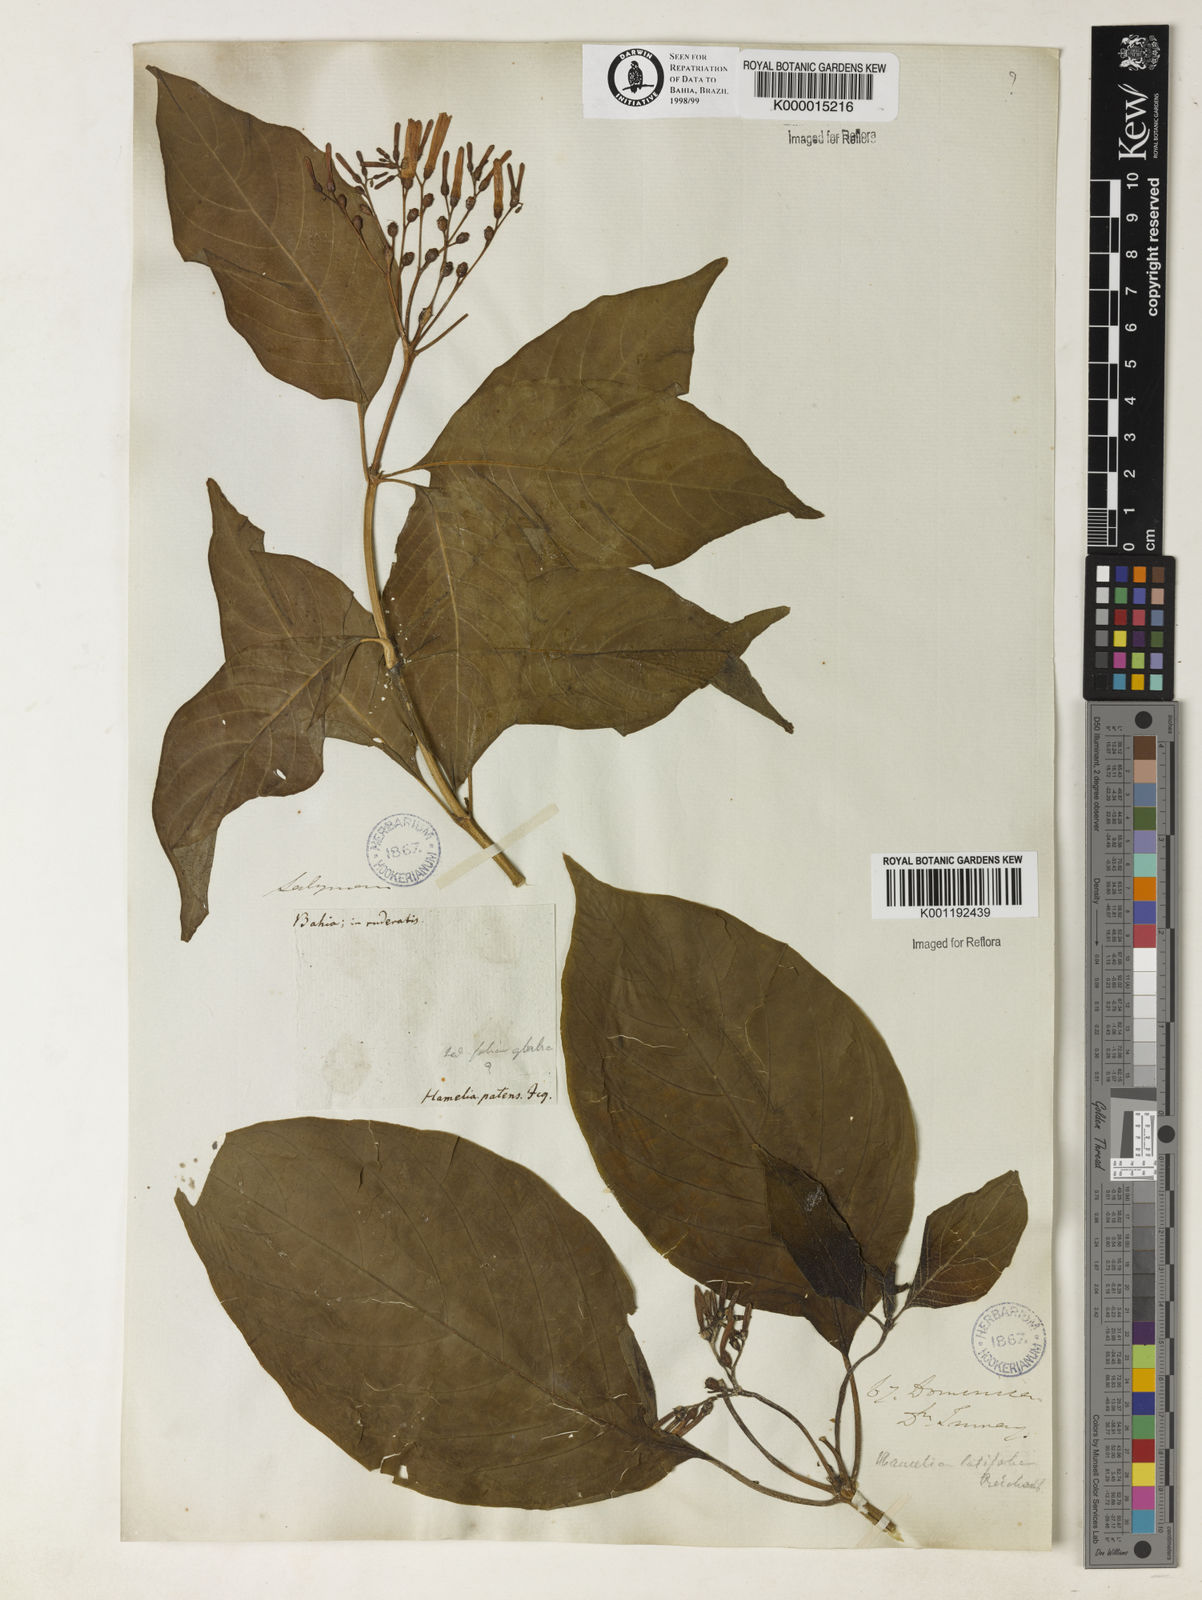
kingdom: Plantae
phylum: Tracheophyta
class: Magnoliopsida
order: Gentianales
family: Rubiaceae
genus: Hamelia
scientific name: Hamelia patens
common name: Redhead
